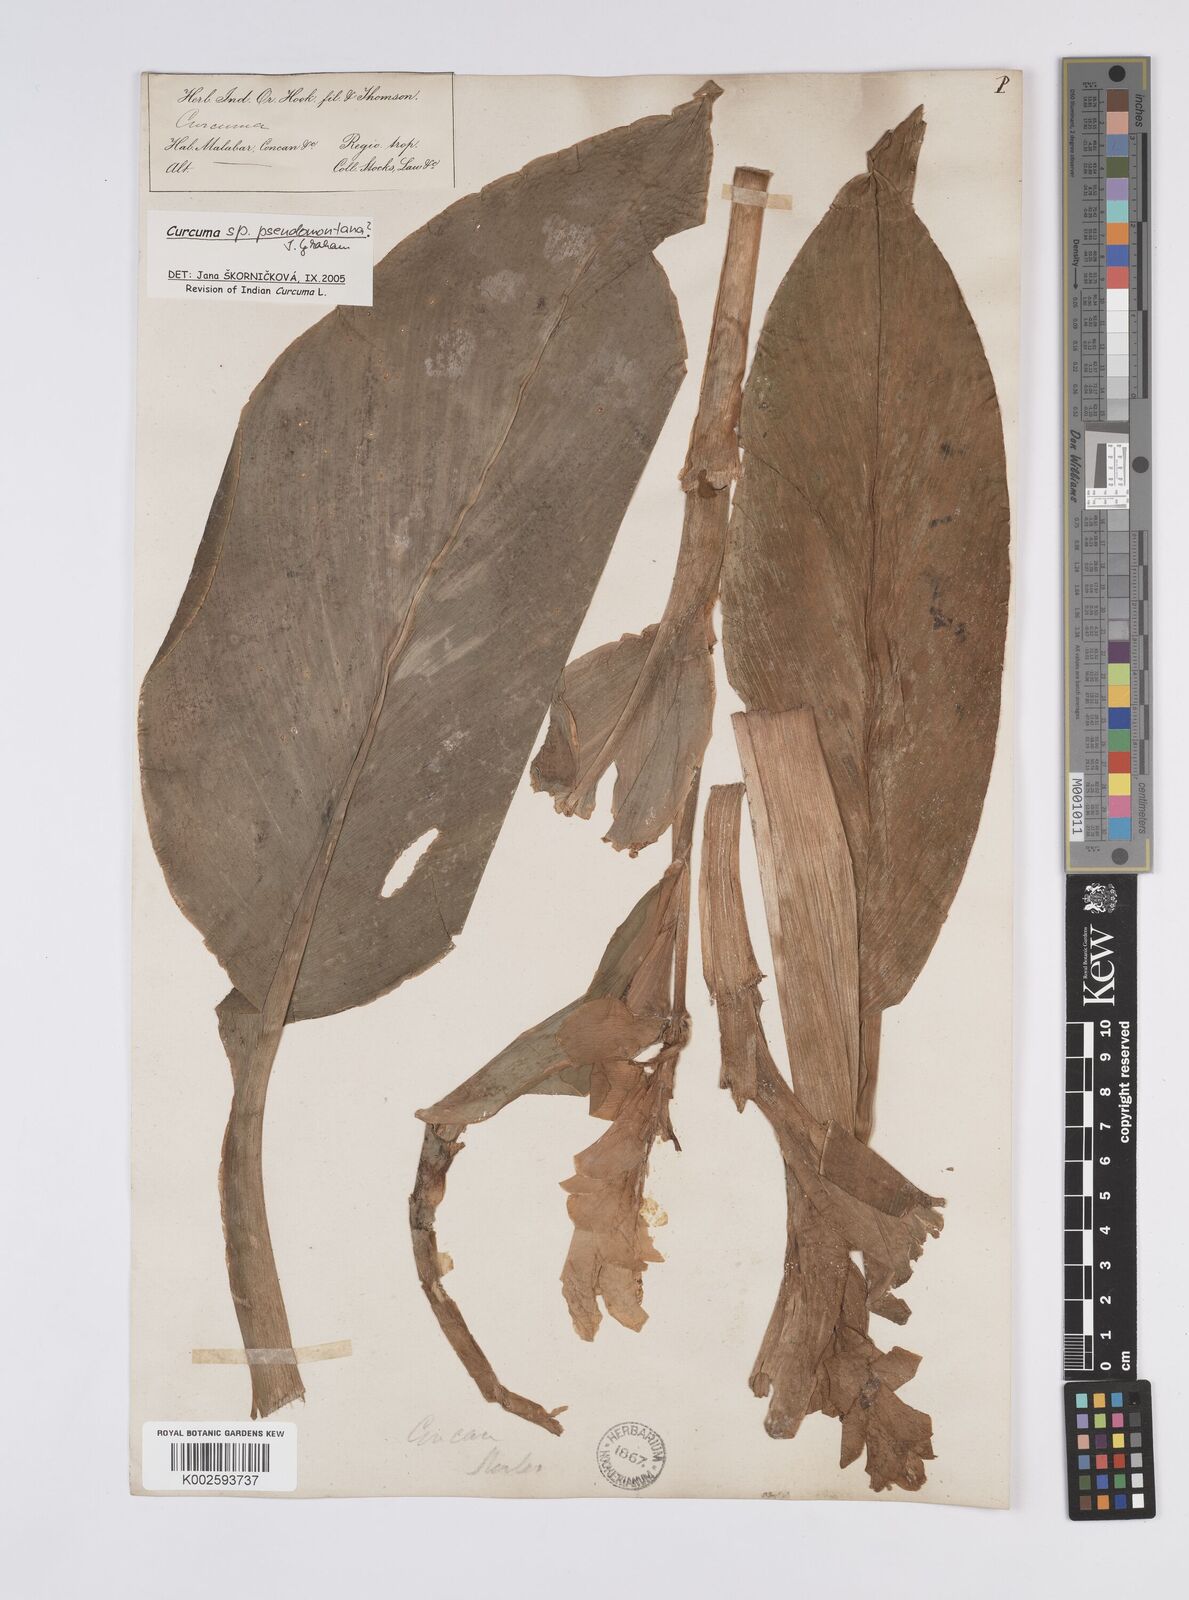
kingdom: Plantae
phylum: Tracheophyta
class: Liliopsida
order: Zingiberales
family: Zingiberaceae
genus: Curcuma
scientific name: Curcuma pseudomontana
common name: Hill turmeric
